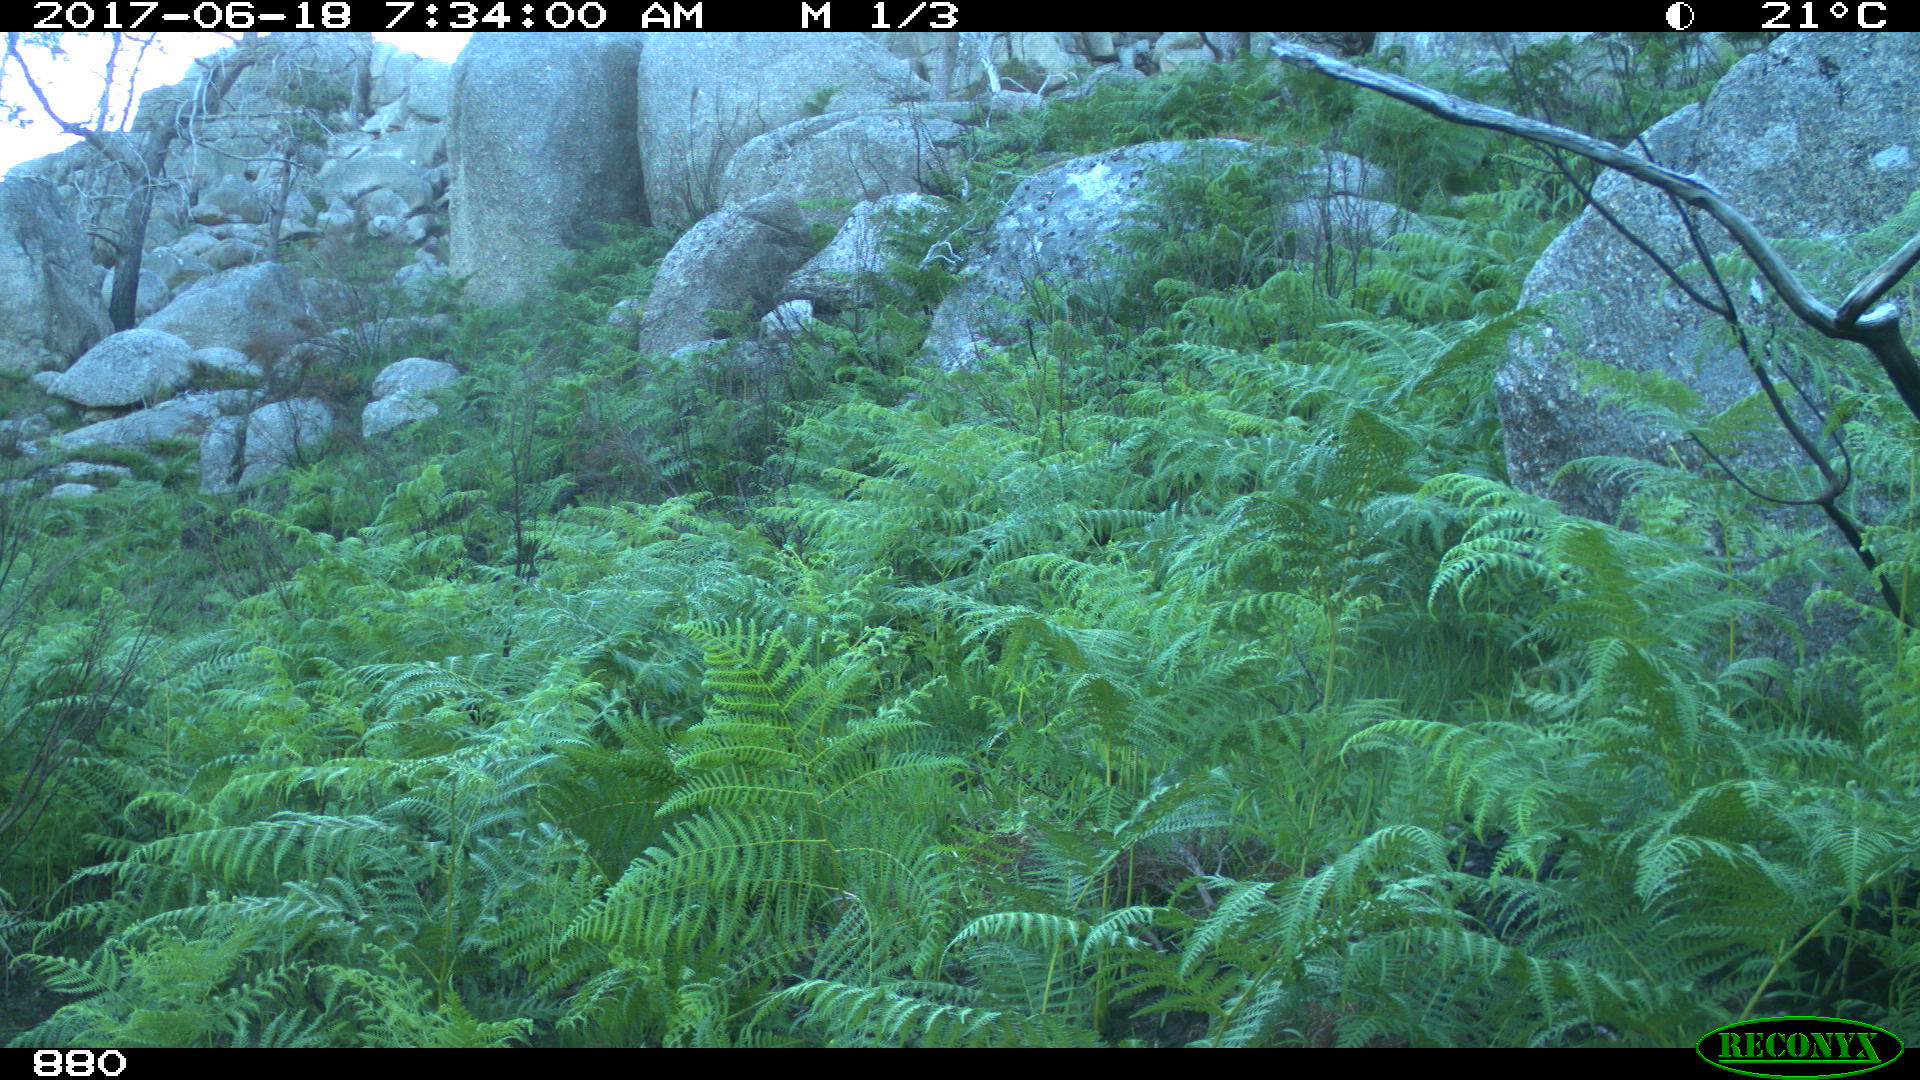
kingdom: Animalia
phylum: Chordata
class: Mammalia
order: Perissodactyla
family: Equidae
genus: Equus
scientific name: Equus caballus
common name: Horse
